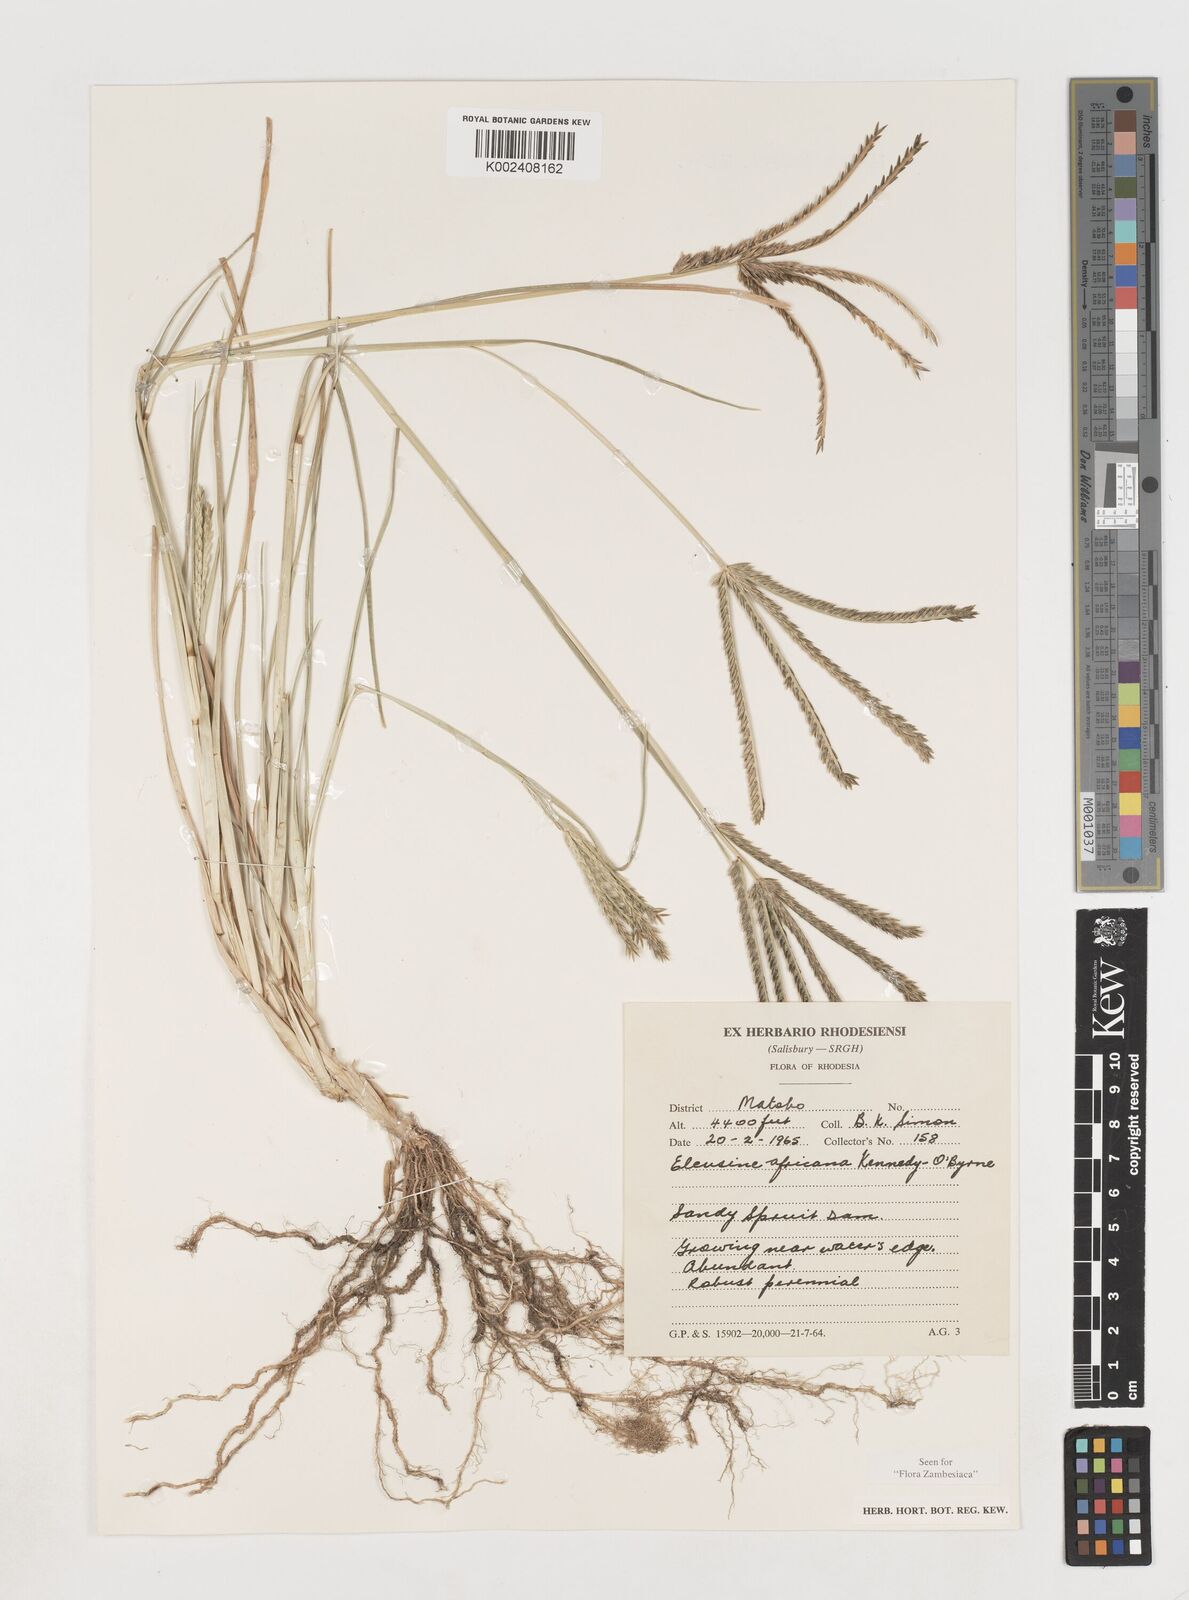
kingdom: Plantae
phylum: Tracheophyta
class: Liliopsida
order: Poales
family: Poaceae
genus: Eleusine
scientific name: Eleusine africana
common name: Wild african finger millet
